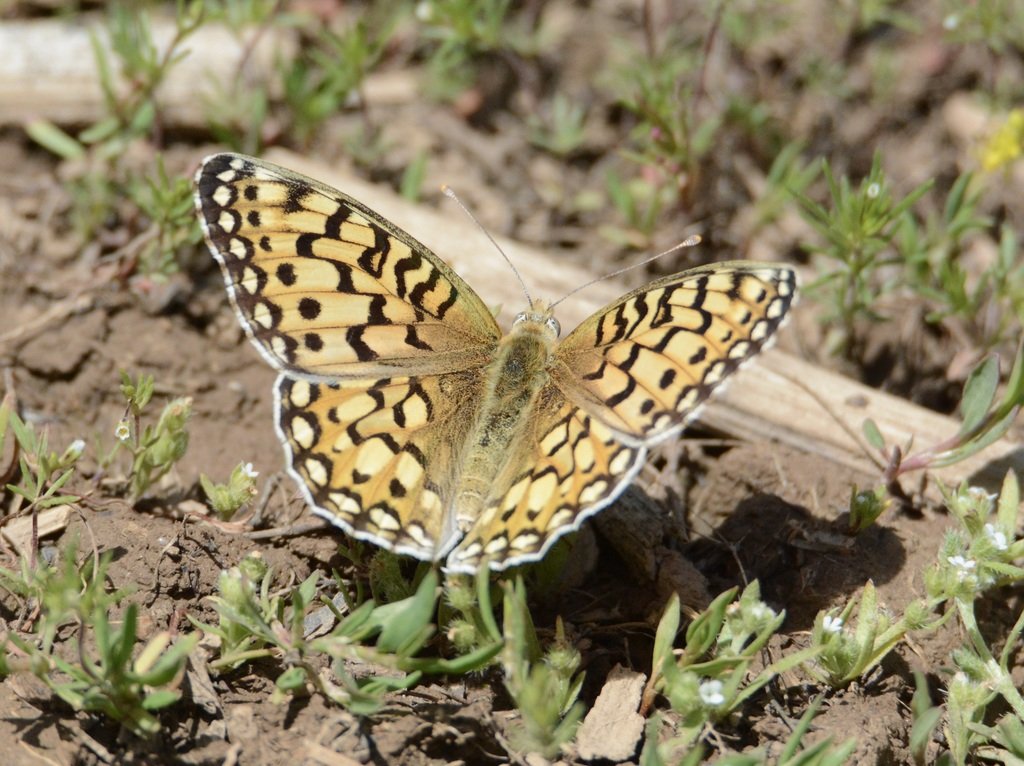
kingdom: Animalia
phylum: Arthropoda
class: Insecta
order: Lepidoptera
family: Nymphalidae
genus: Speyeria
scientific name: Speyeria mormonia
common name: Mormon Fritillary
